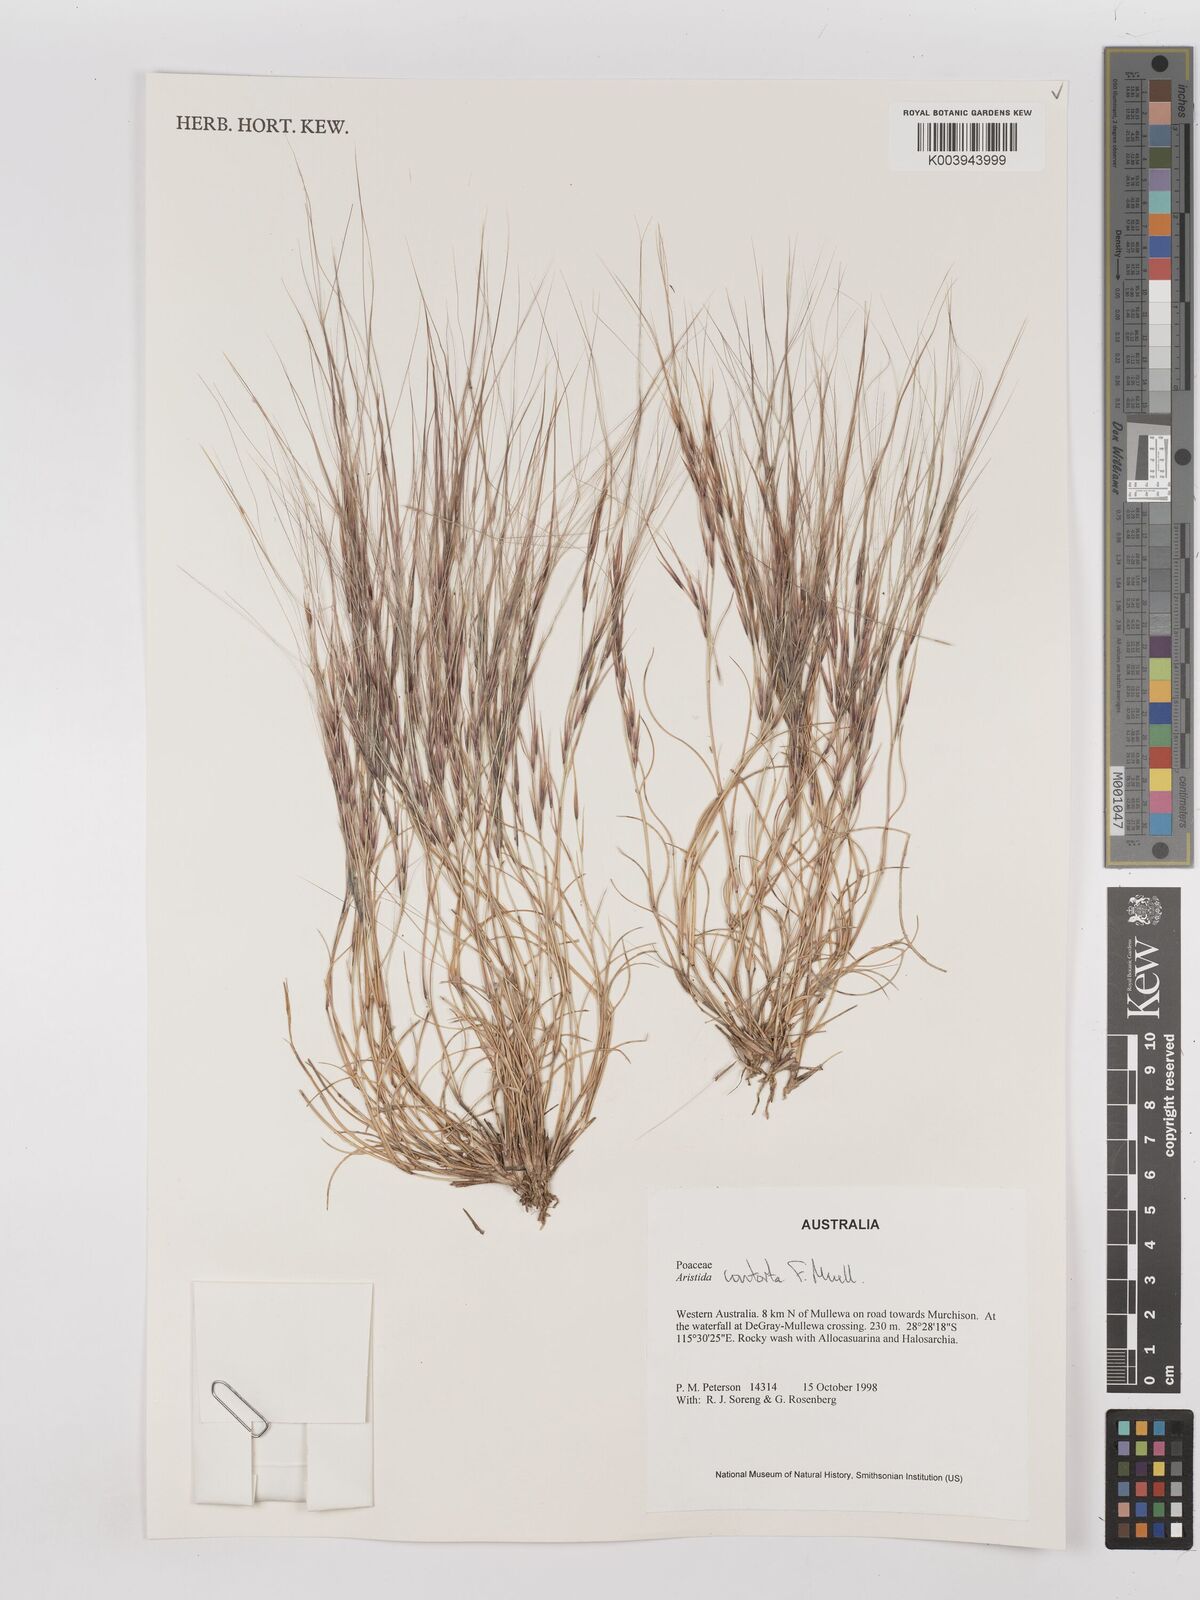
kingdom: Plantae
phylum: Tracheophyta
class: Liliopsida
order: Poales
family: Poaceae
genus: Aristida
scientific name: Aristida contorta
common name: Bunch kerosene grass
